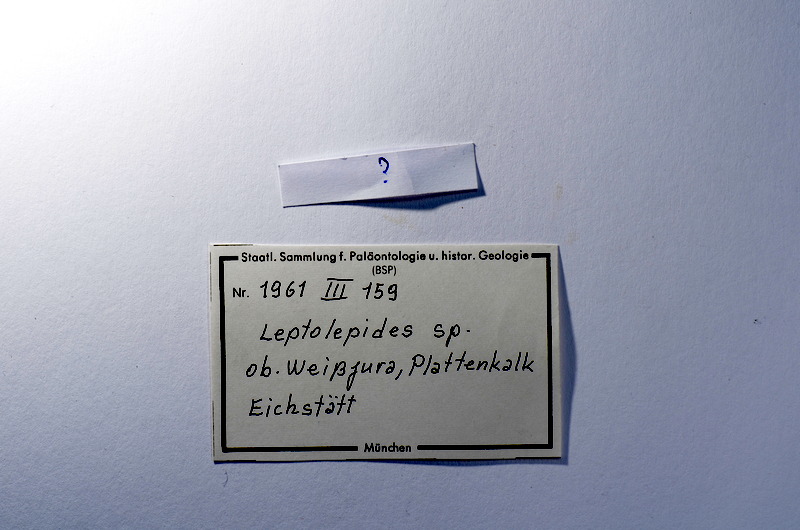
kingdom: Animalia
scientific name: Animalia
